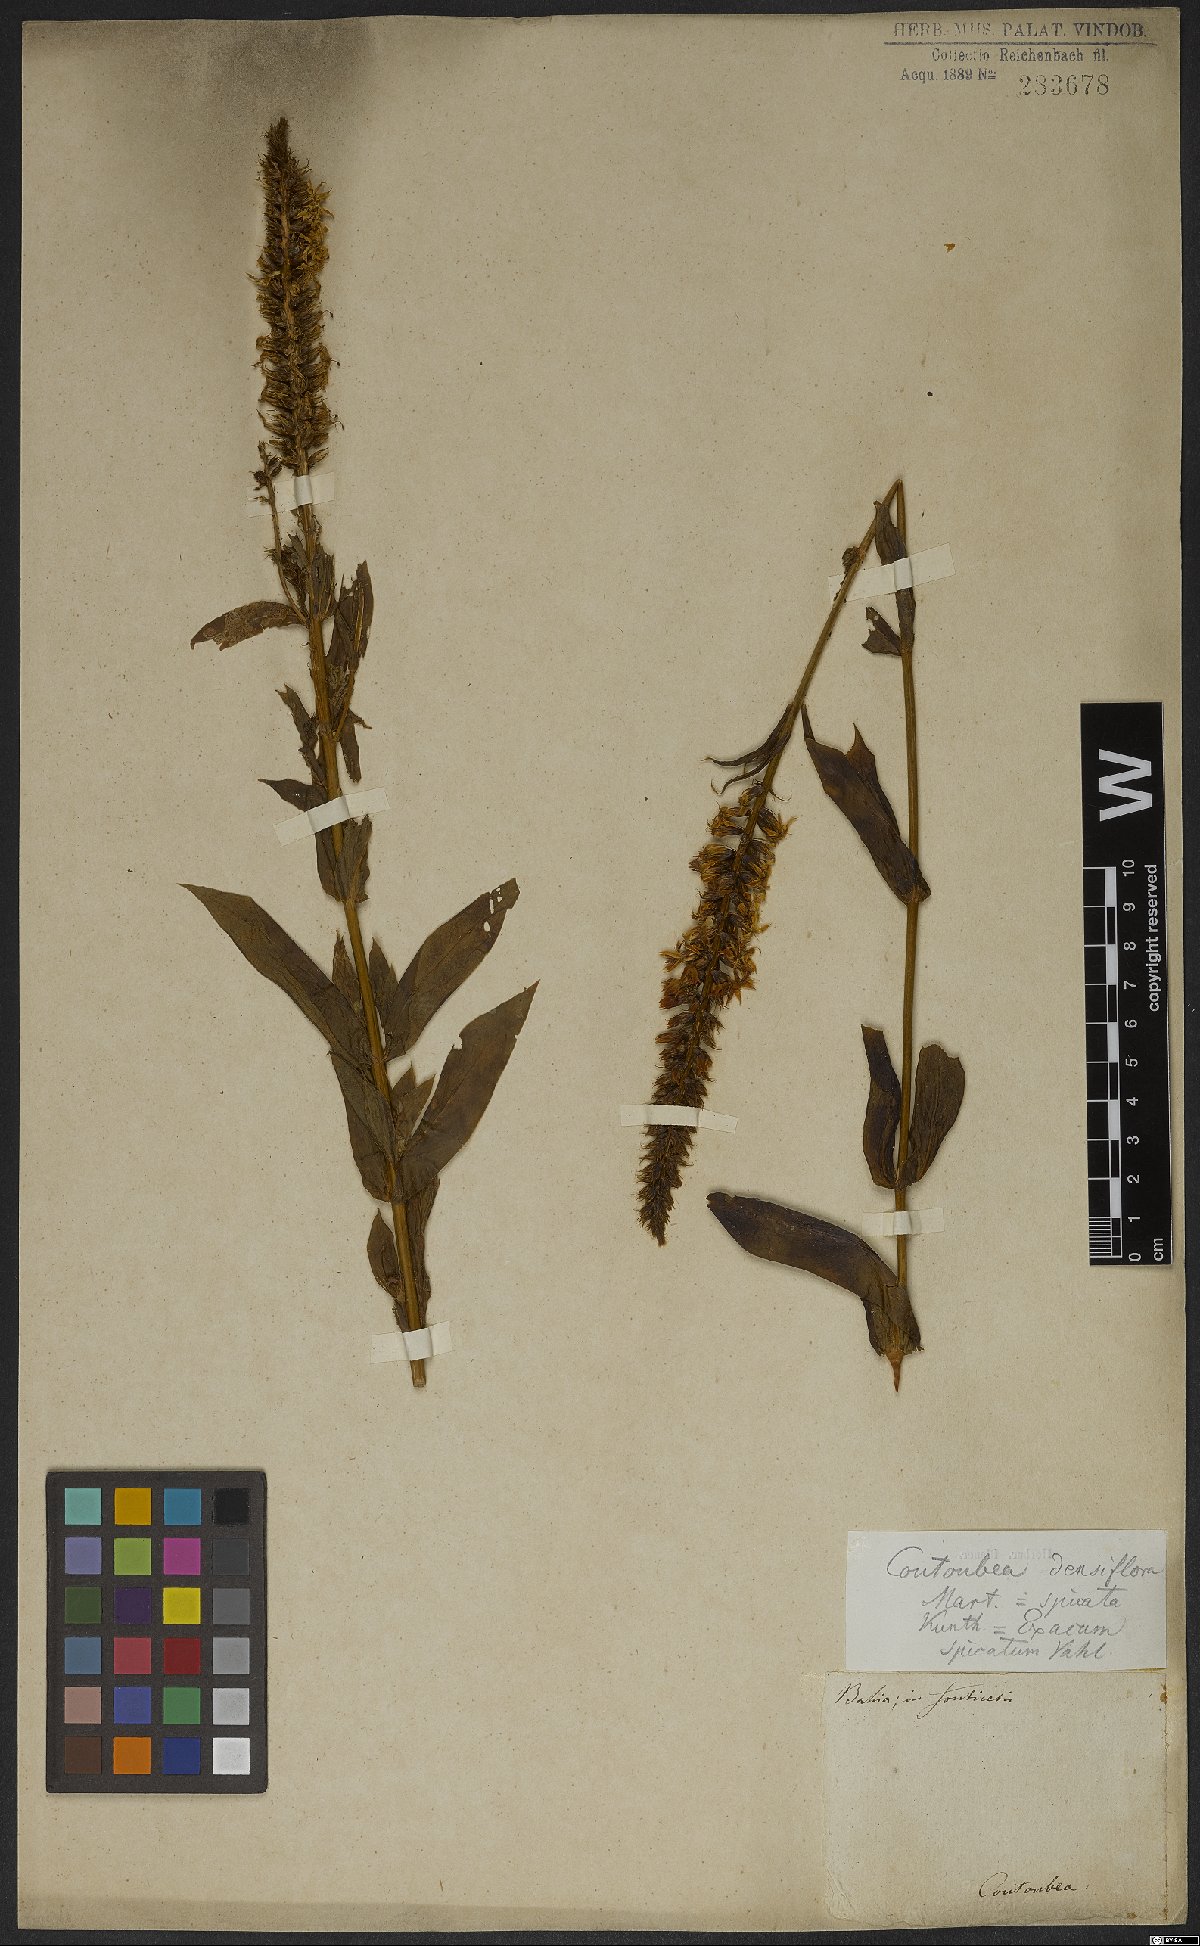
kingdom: Plantae
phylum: Tracheophyta
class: Magnoliopsida
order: Gentianales
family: Gentianaceae
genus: Coutoubea
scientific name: Coutoubea spicata
